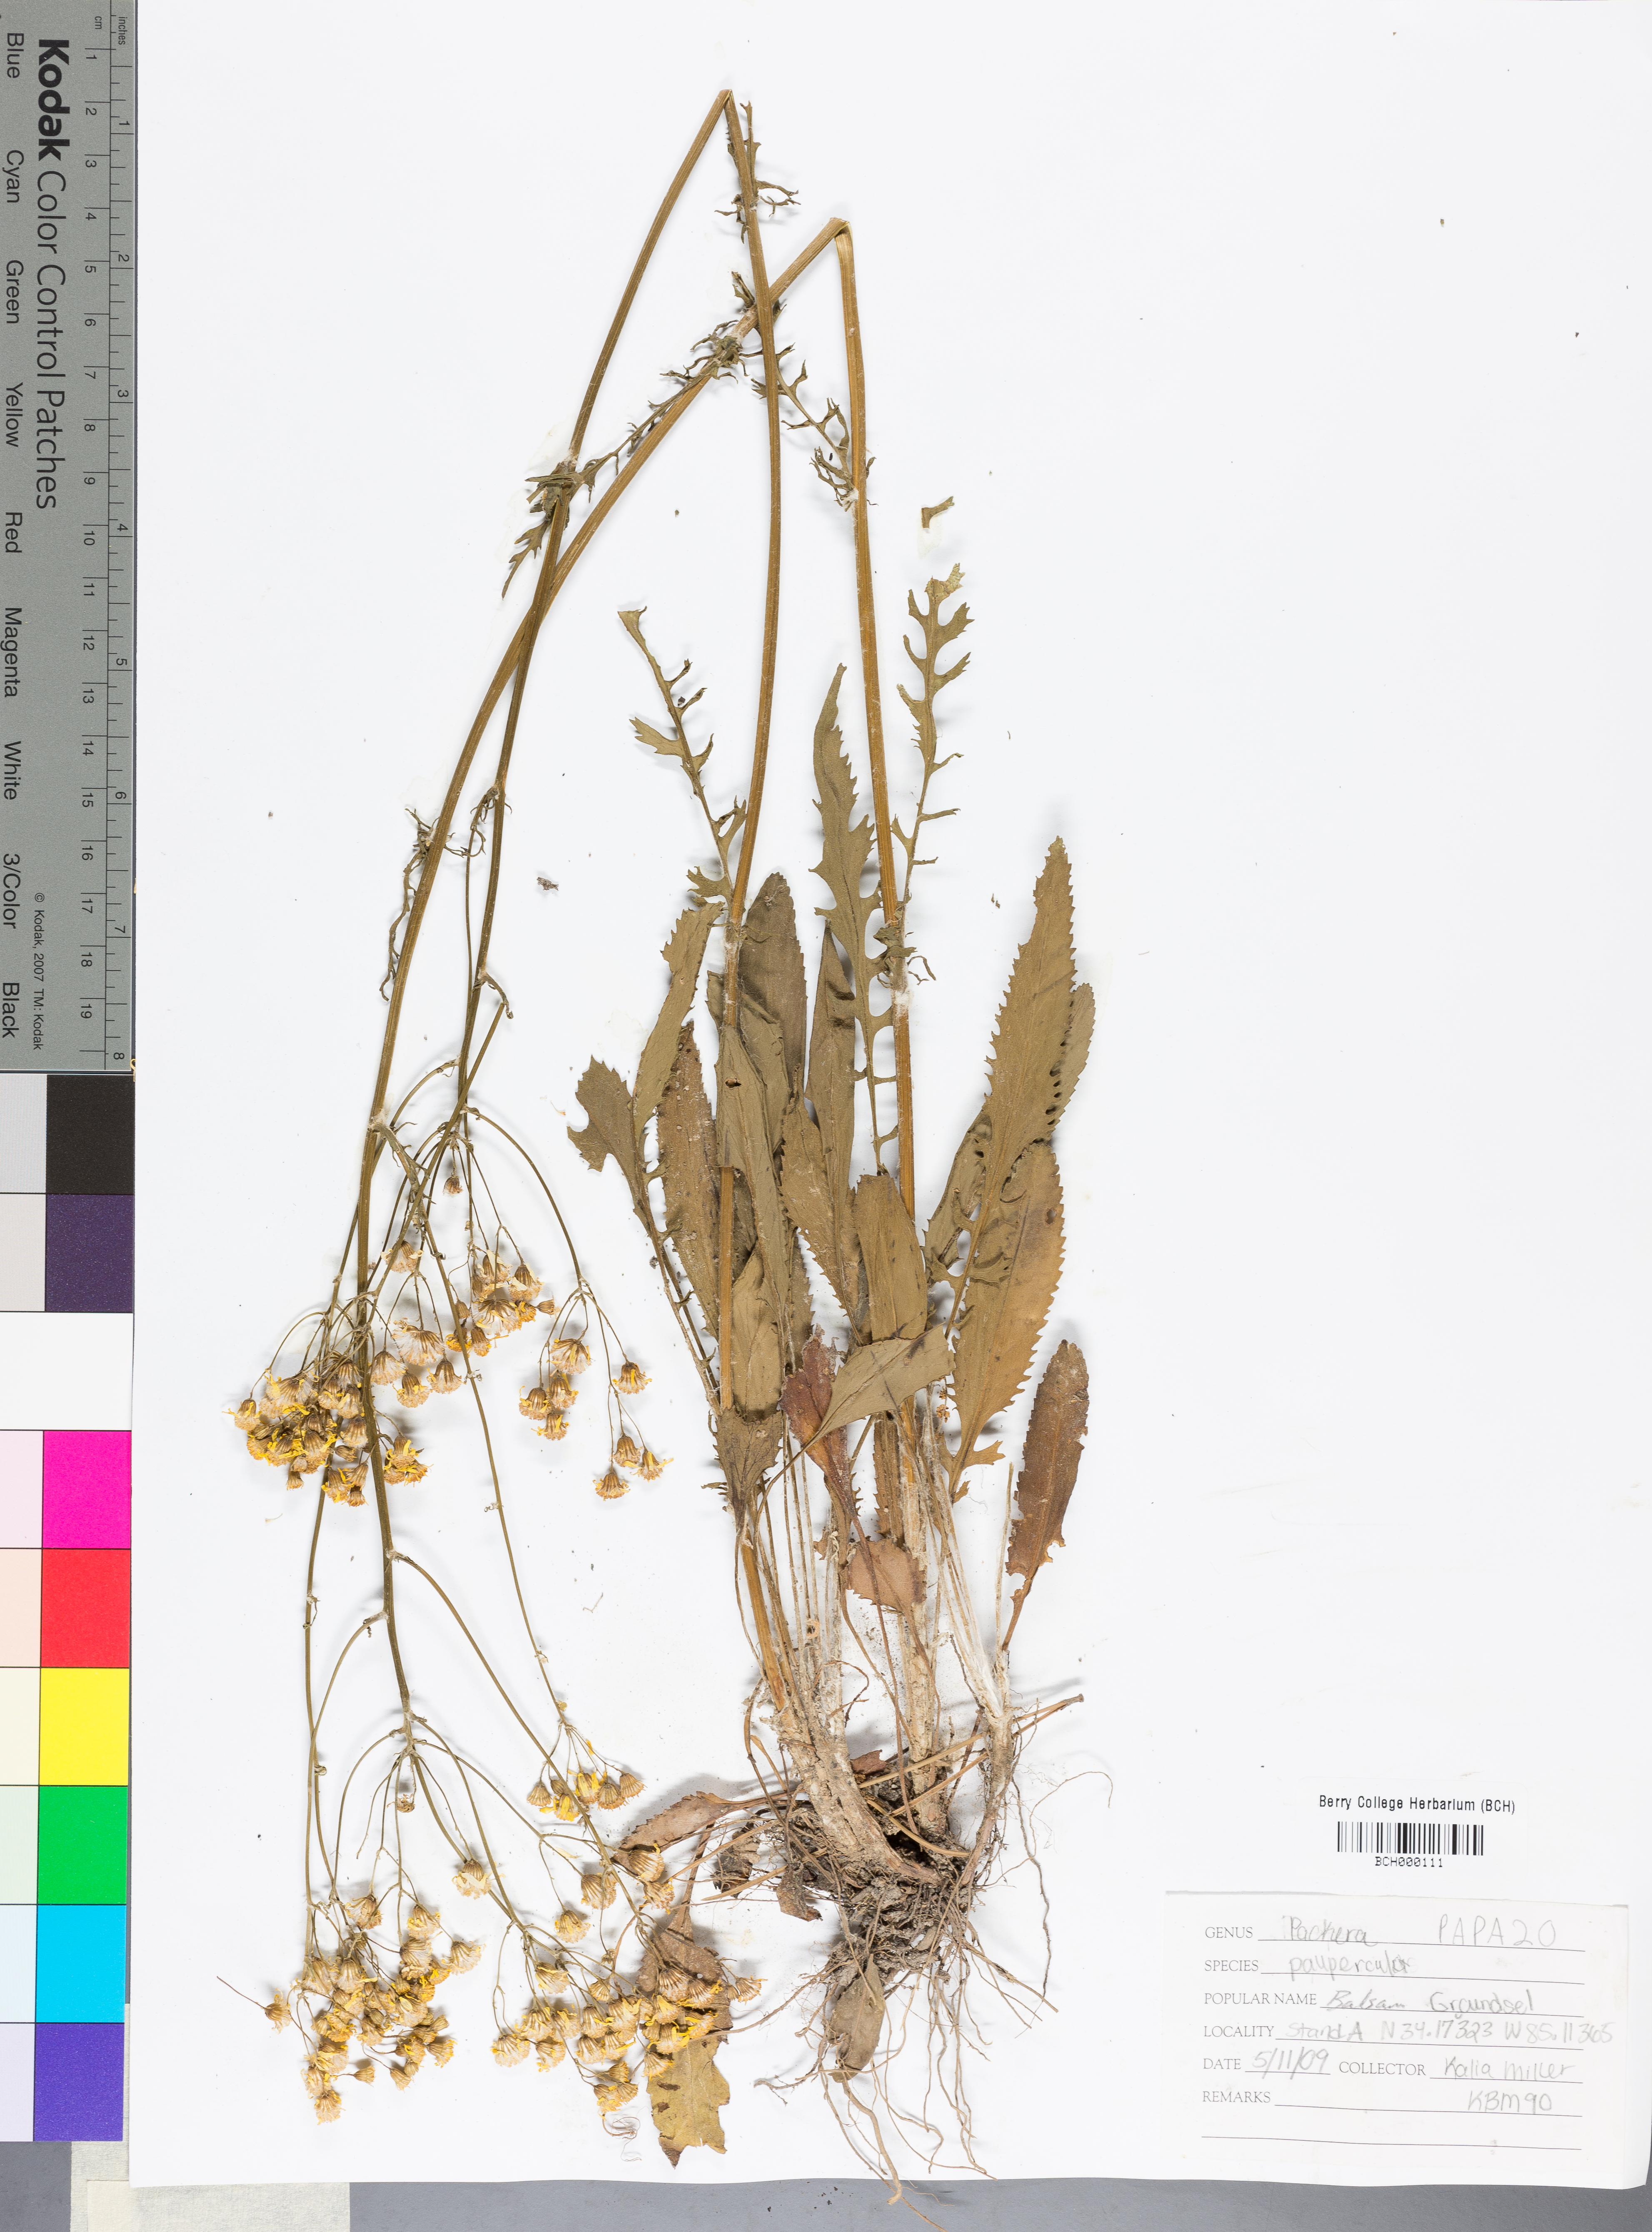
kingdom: Plantae
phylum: Tracheophyta
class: Magnoliopsida
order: Asterales
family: Asteraceae
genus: Packera
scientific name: Packera paupercula
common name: Balsam groundsel
